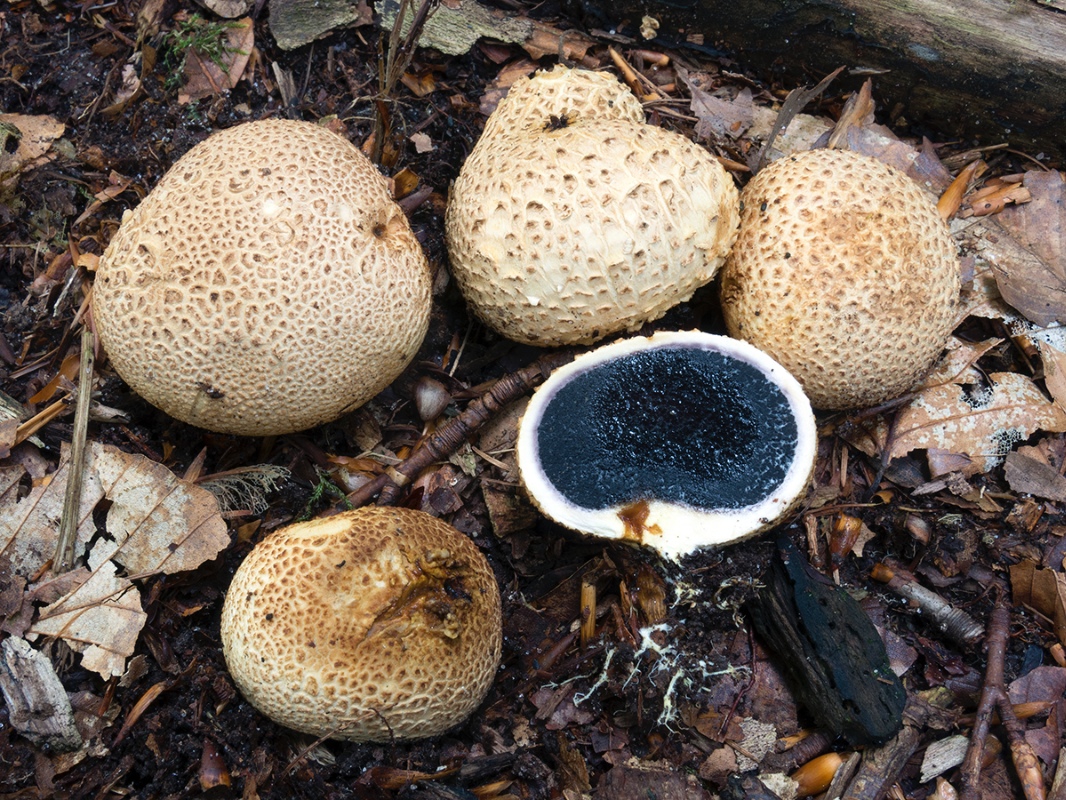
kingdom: Fungi
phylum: Basidiomycota
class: Agaricomycetes
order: Boletales
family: Sclerodermataceae
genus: Scleroderma
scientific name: Scleroderma citrinum
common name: almindelig bruskbold
